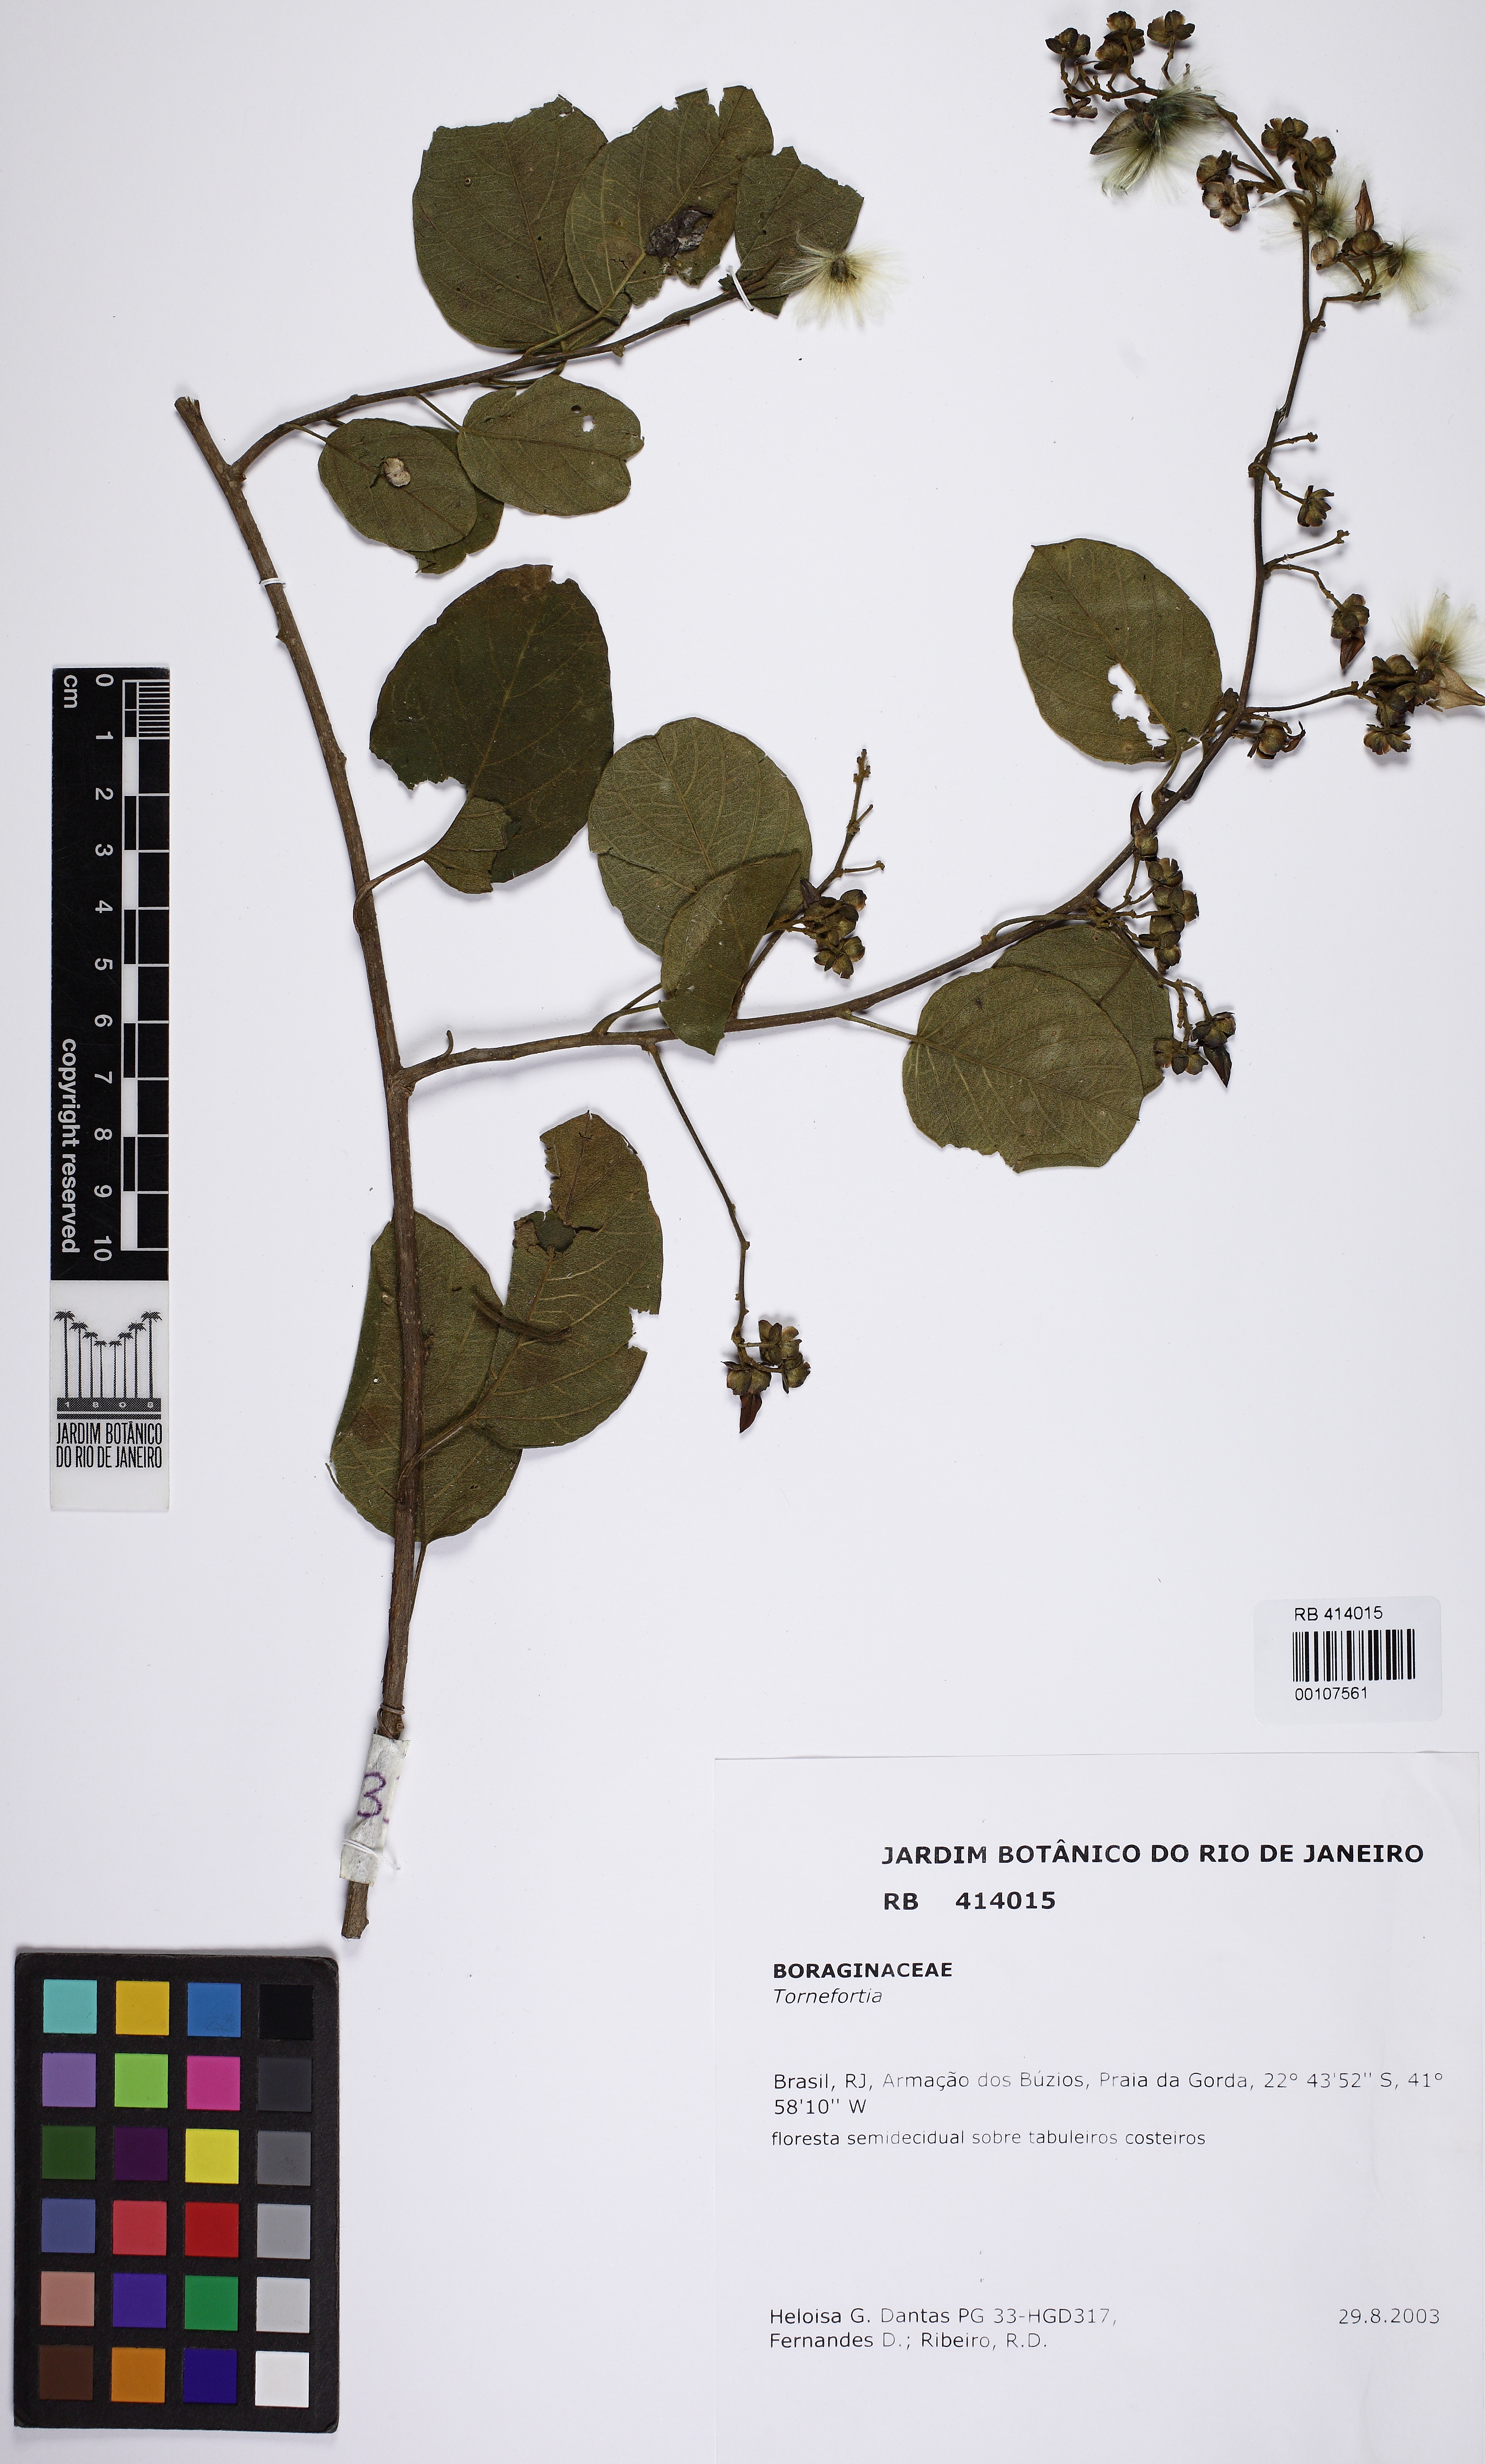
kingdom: Plantae
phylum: Tracheophyta
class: Magnoliopsida
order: Boraginales
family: Heliotropiaceae
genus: Tournefortia
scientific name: Tournefortia
